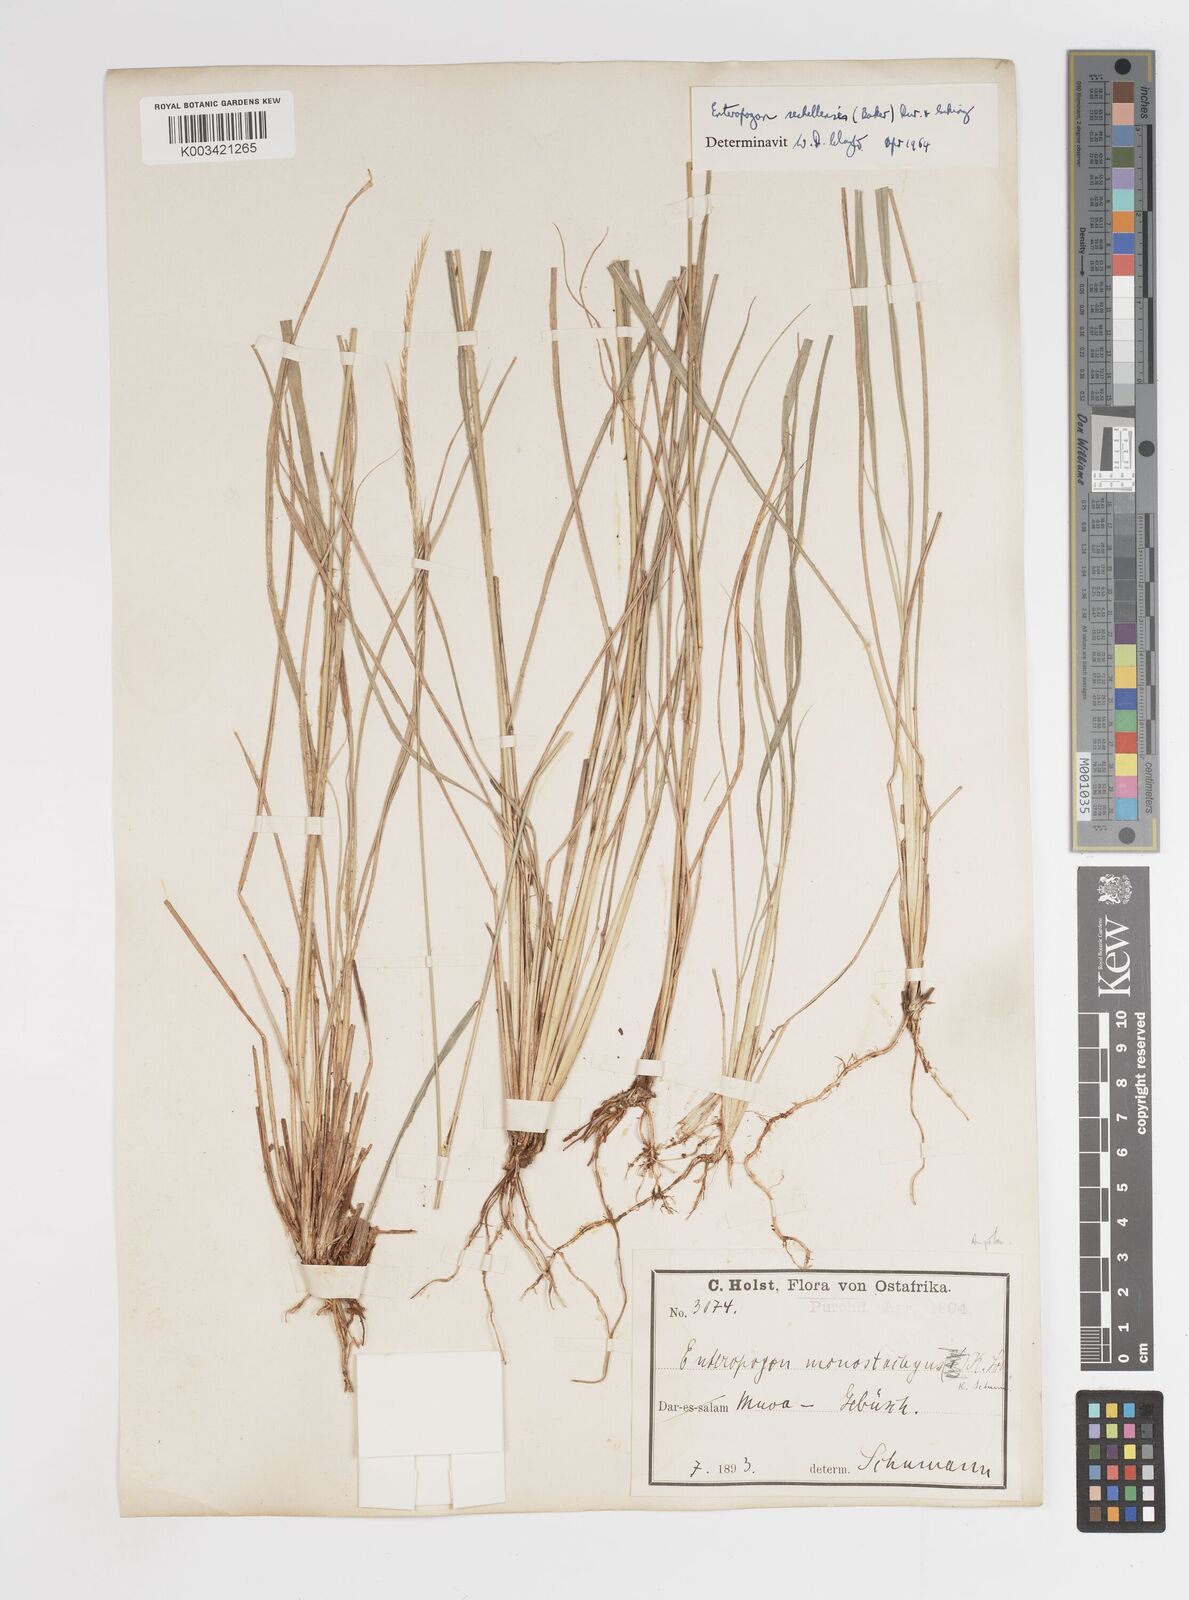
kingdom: Plantae
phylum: Tracheophyta
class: Liliopsida
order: Poales
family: Poaceae
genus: Enteropogon
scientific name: Enteropogon sechellensis
